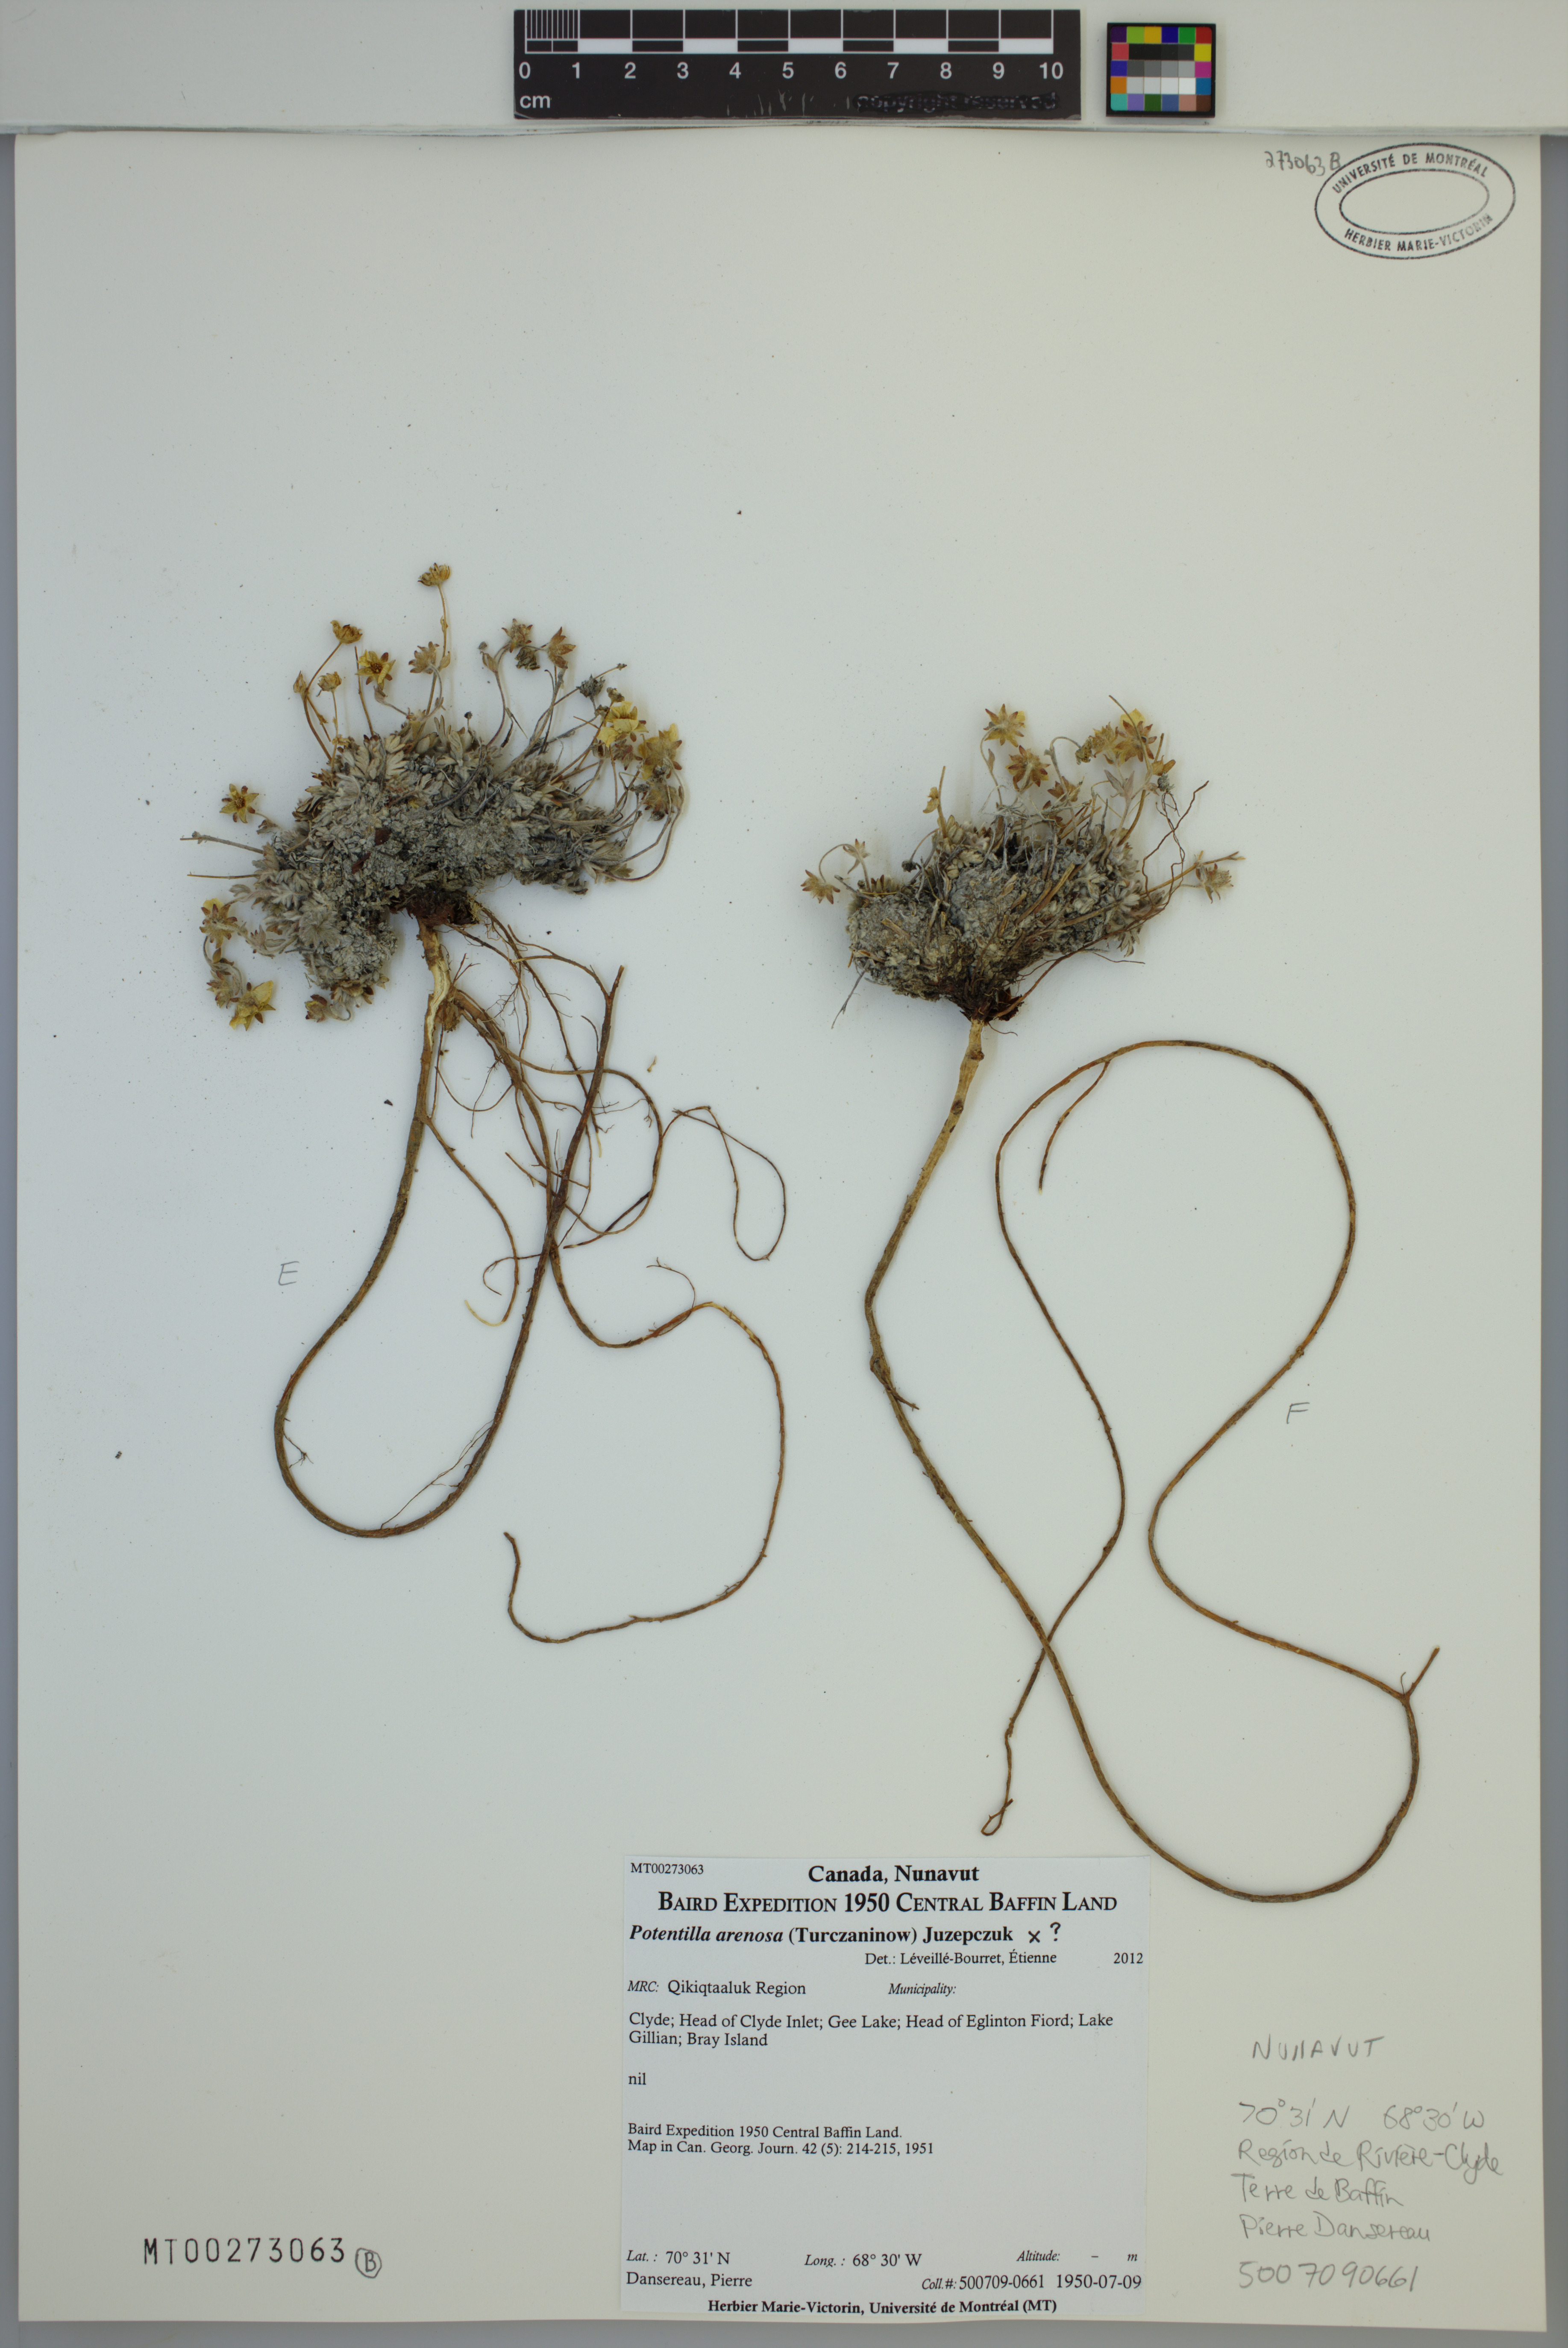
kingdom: Plantae
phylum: Tracheophyta
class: Magnoliopsida
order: Rosales
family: Rosaceae
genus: Potentilla
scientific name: Potentilla arenosa
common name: Bluff cinquefoil
